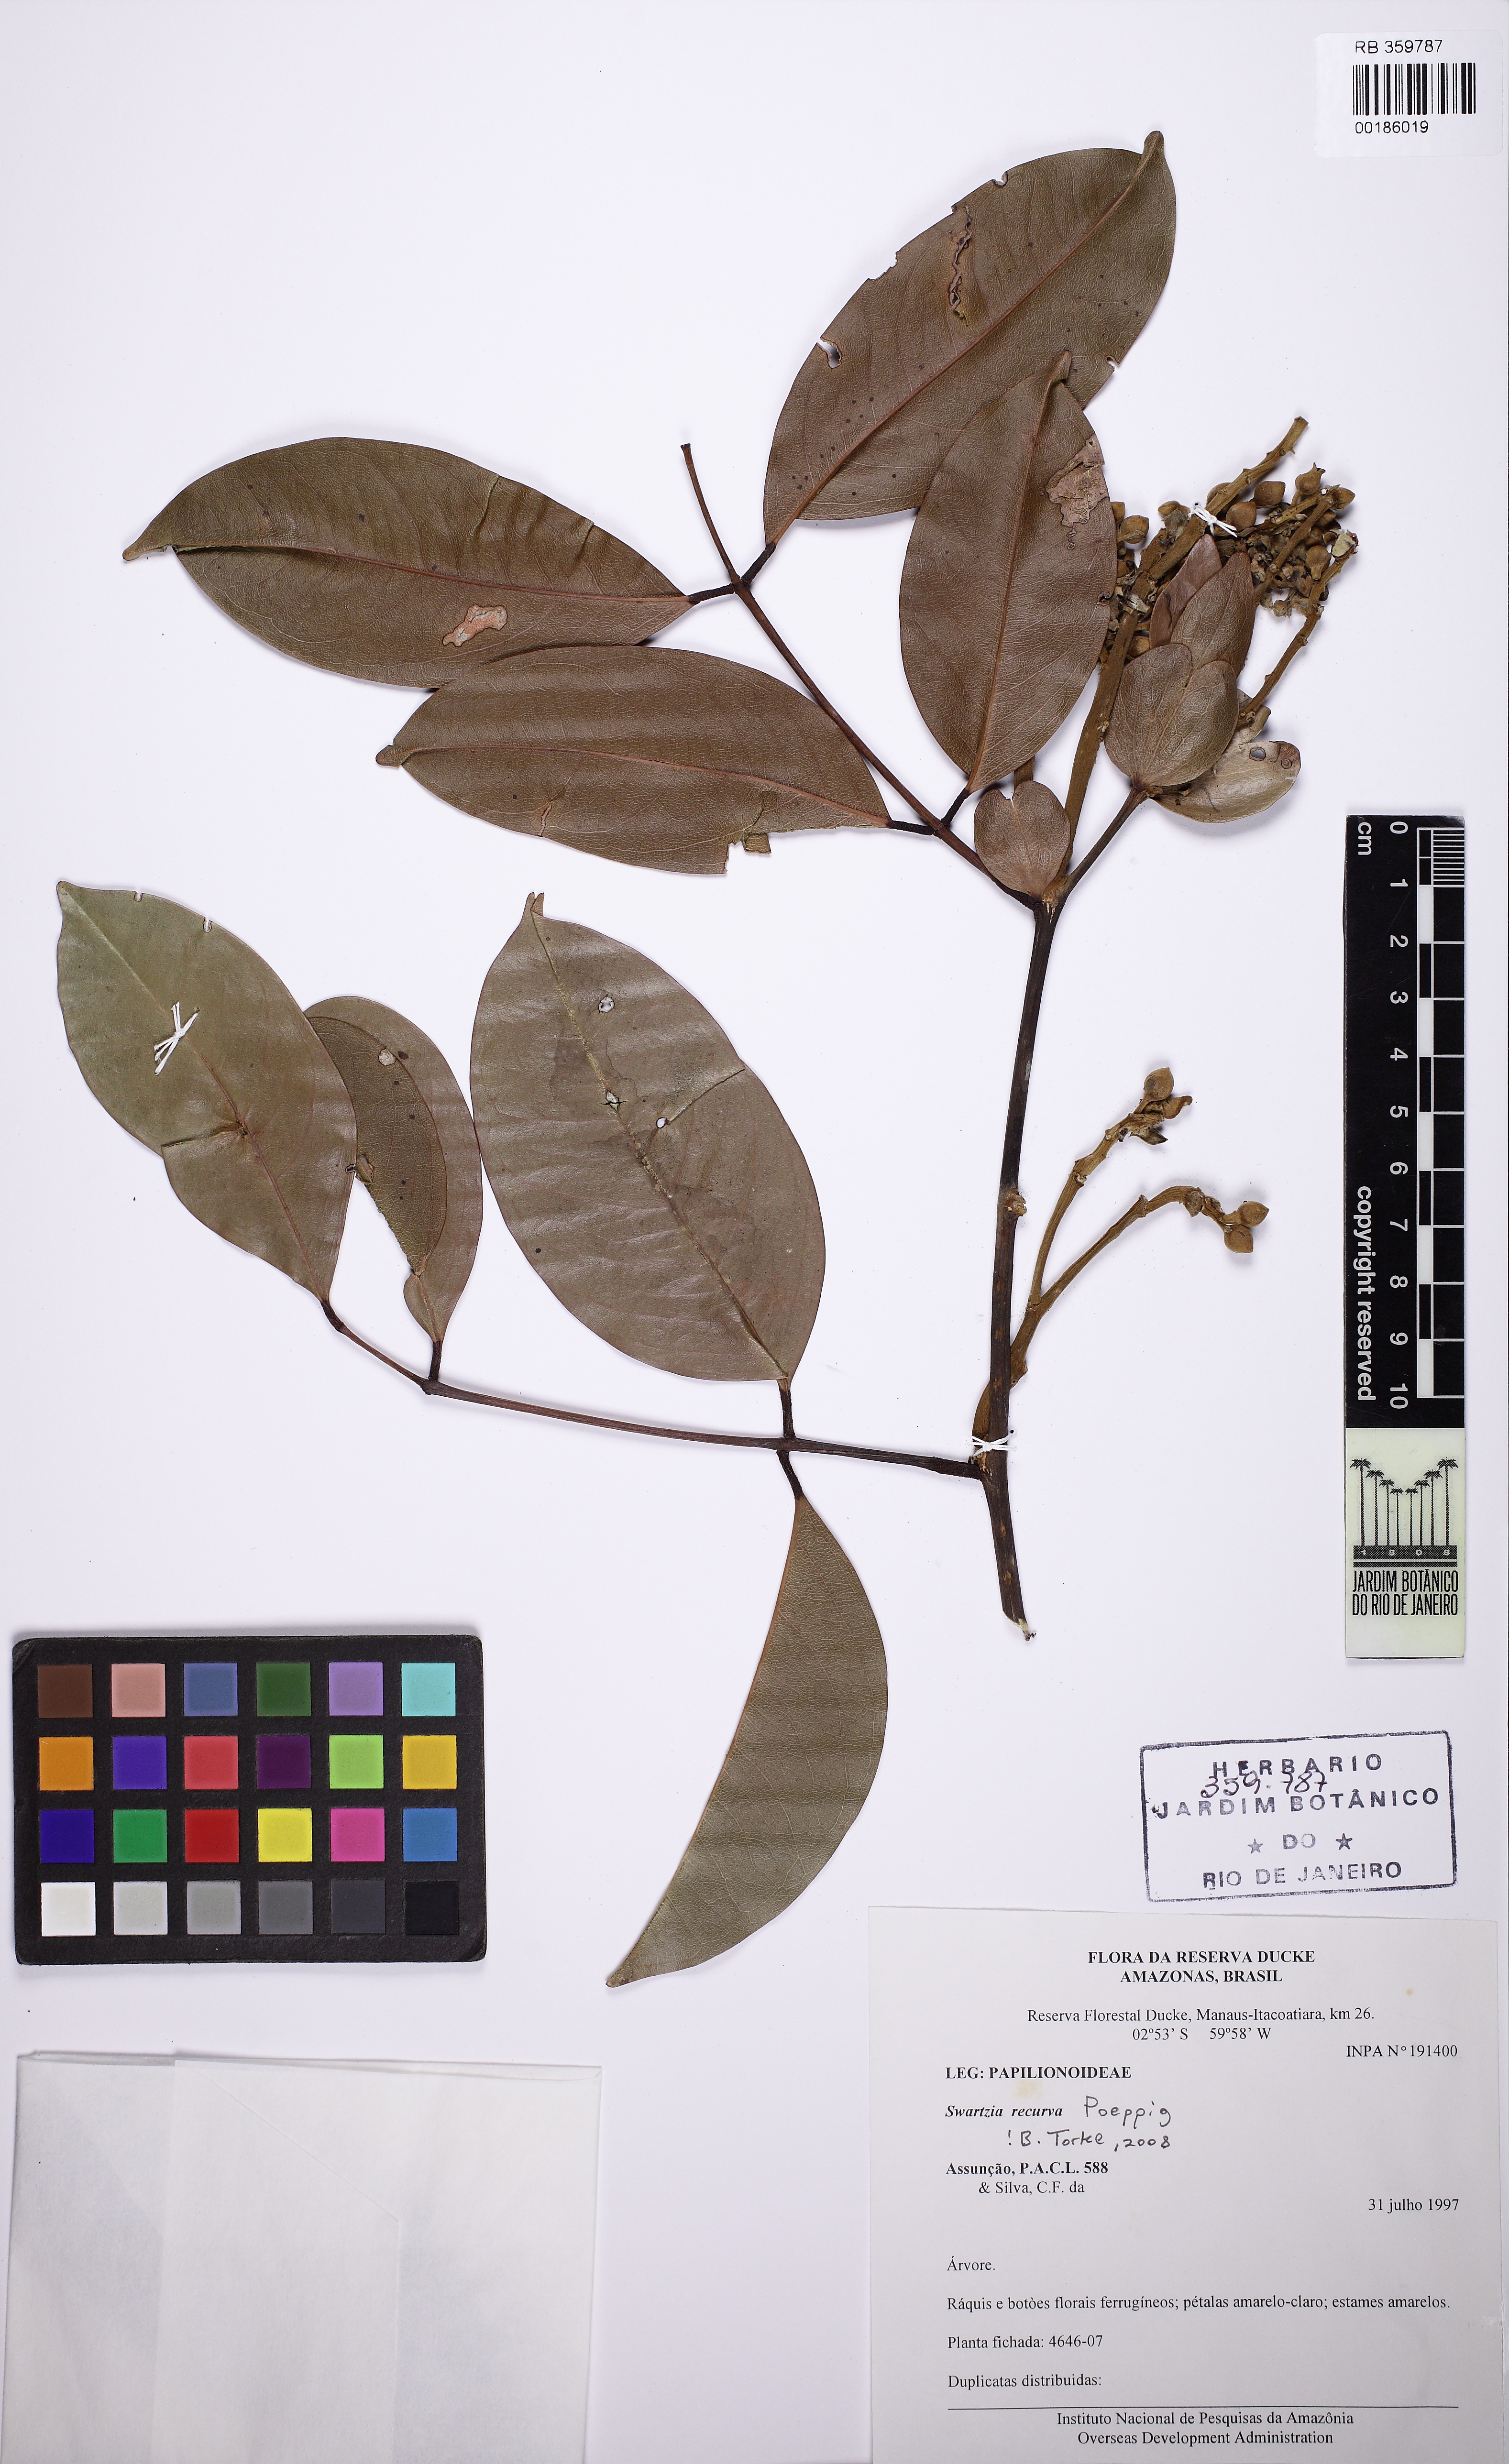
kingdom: Plantae
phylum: Tracheophyta
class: Magnoliopsida
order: Fabales
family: Fabaceae
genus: Swartzia
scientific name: Swartzia recurva
